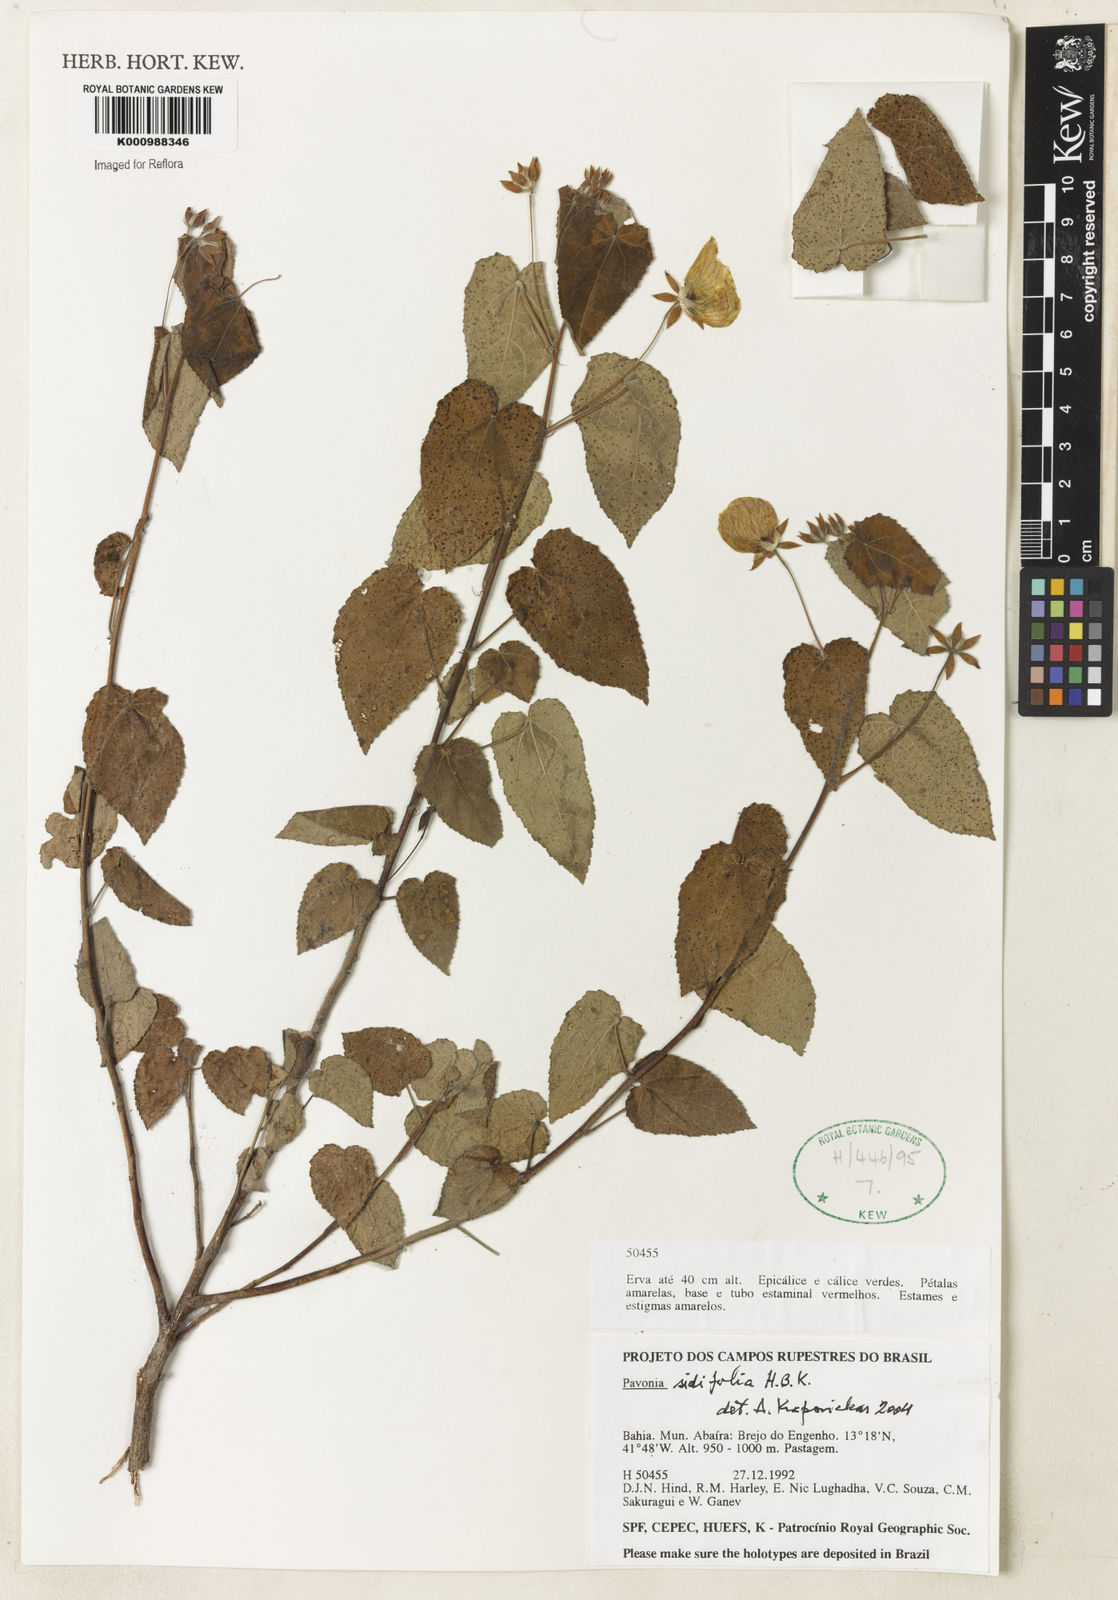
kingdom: Plantae
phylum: Tracheophyta
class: Magnoliopsida
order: Malvales
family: Malvaceae
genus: Pavonia
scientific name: Pavonia sidifolia
